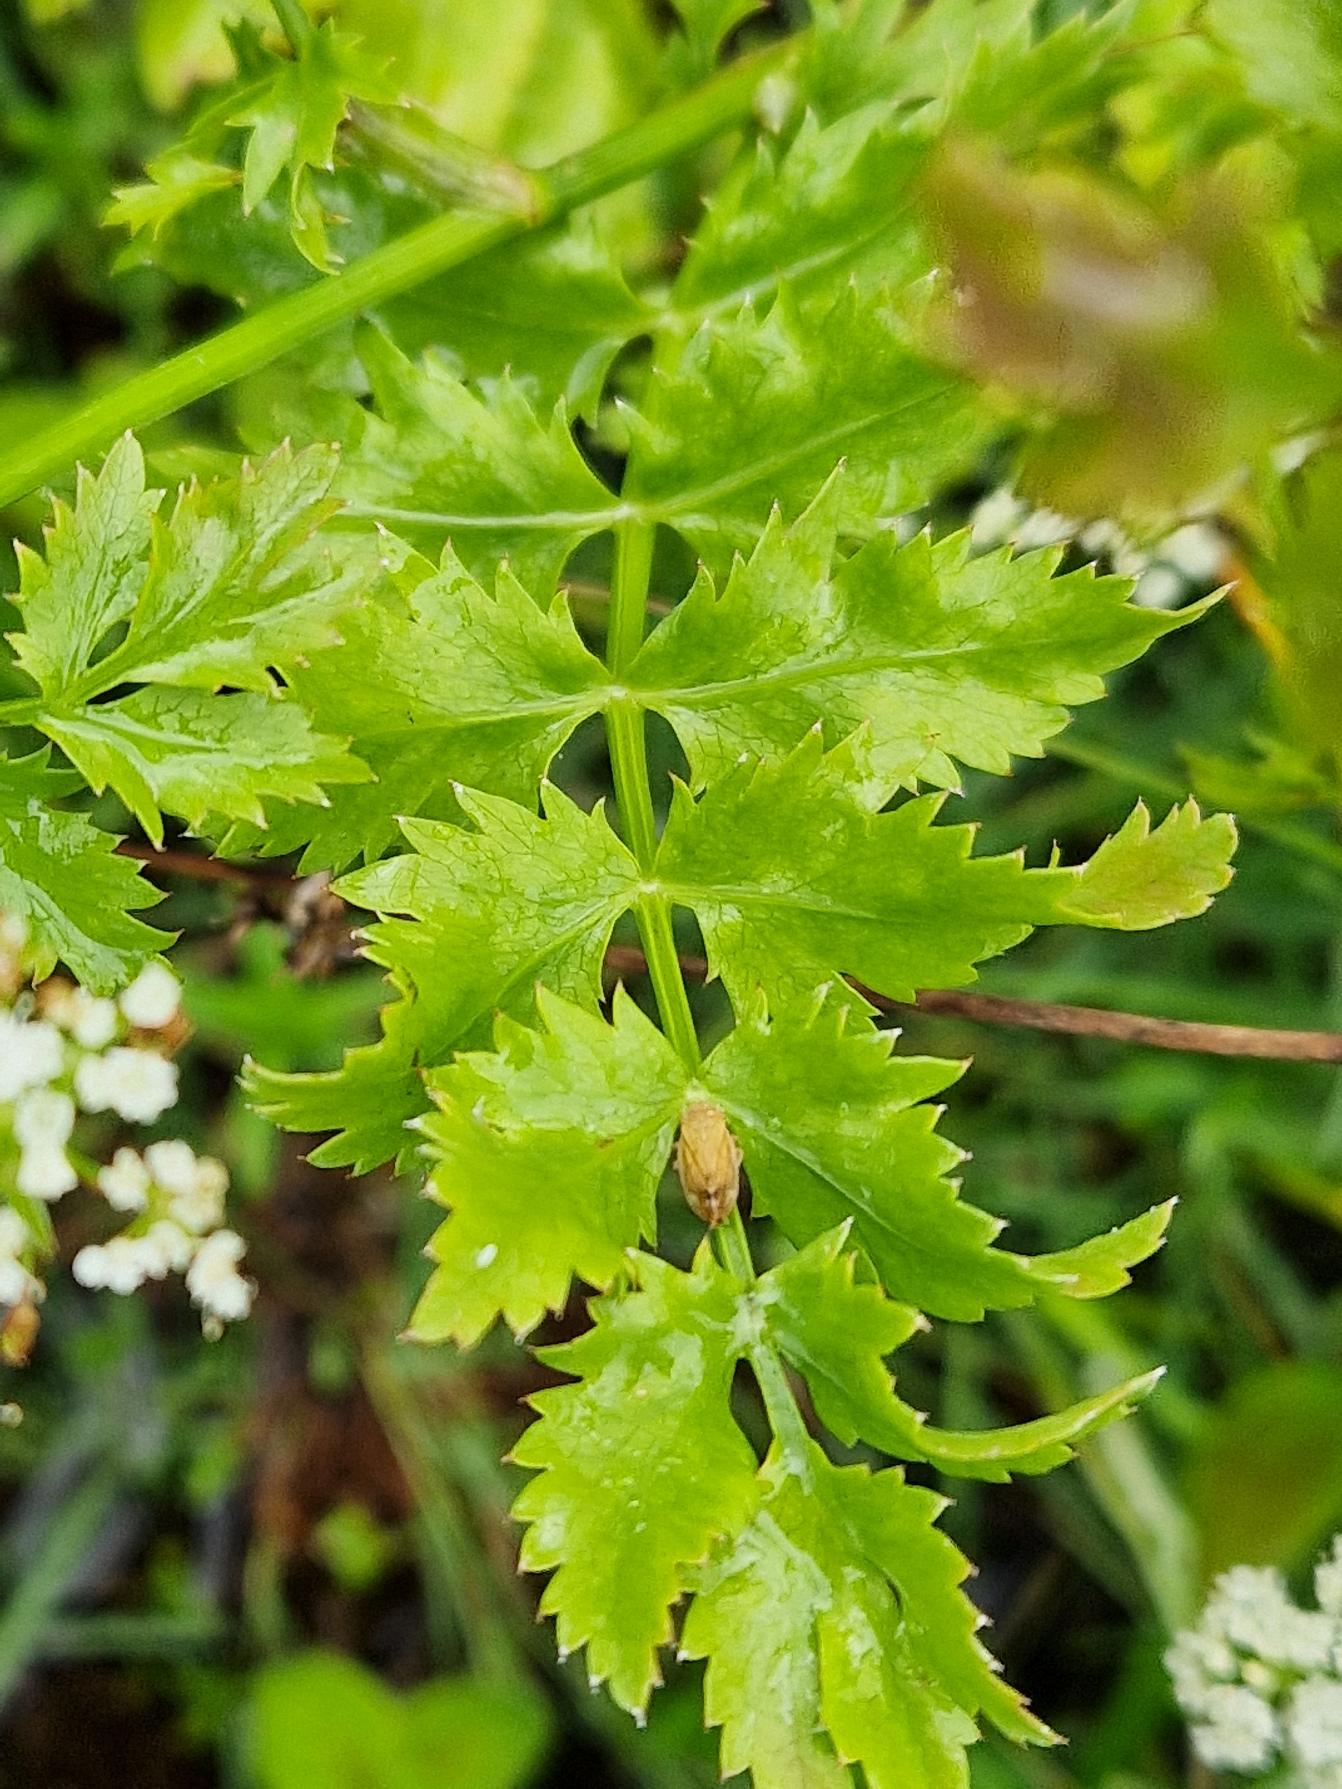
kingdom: Plantae
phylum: Tracheophyta
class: Magnoliopsida
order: Apiales
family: Apiaceae
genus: Berula
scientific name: Berula erecta
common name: Sideskærm
